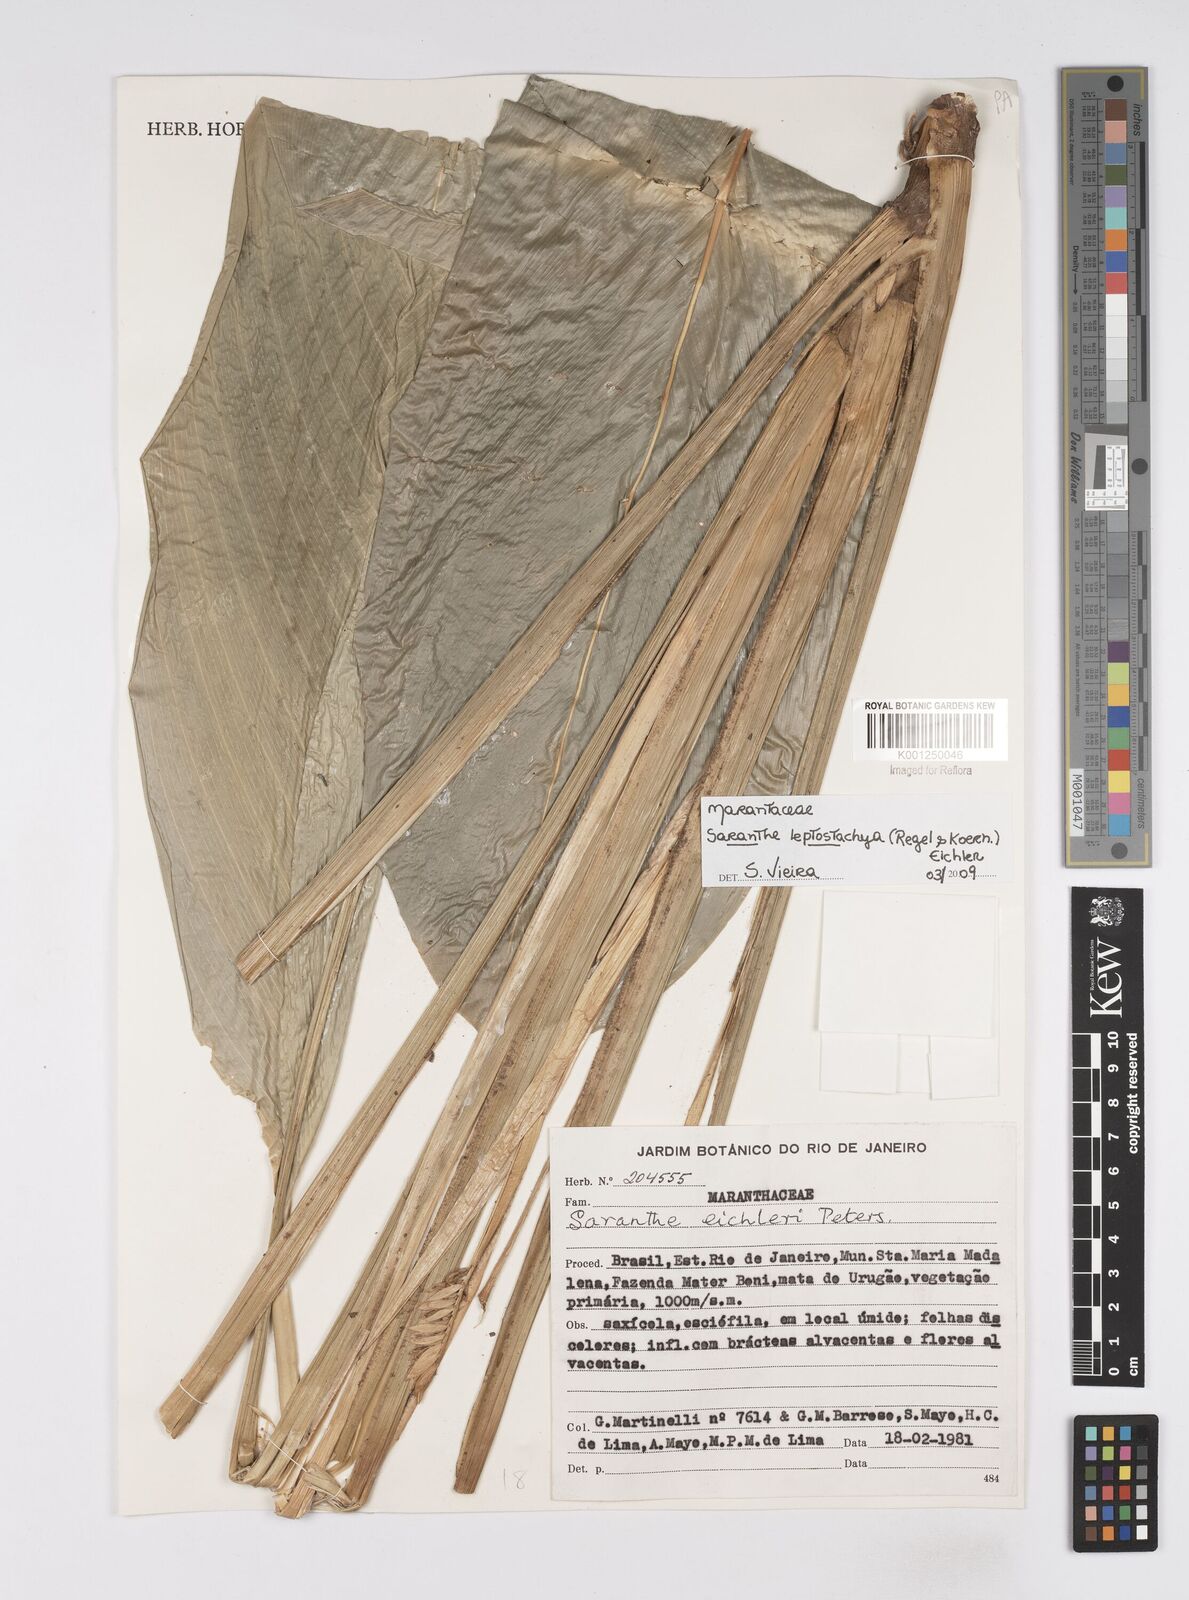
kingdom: Plantae
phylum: Tracheophyta
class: Liliopsida
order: Zingiberales
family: Marantaceae
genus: Saranthe
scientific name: Saranthe leptostachya
